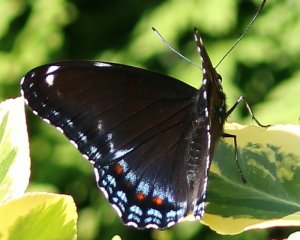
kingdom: Animalia
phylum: Arthropoda
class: Insecta
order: Lepidoptera
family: Nymphalidae
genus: Limenitis
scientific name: Limenitis astyanax
